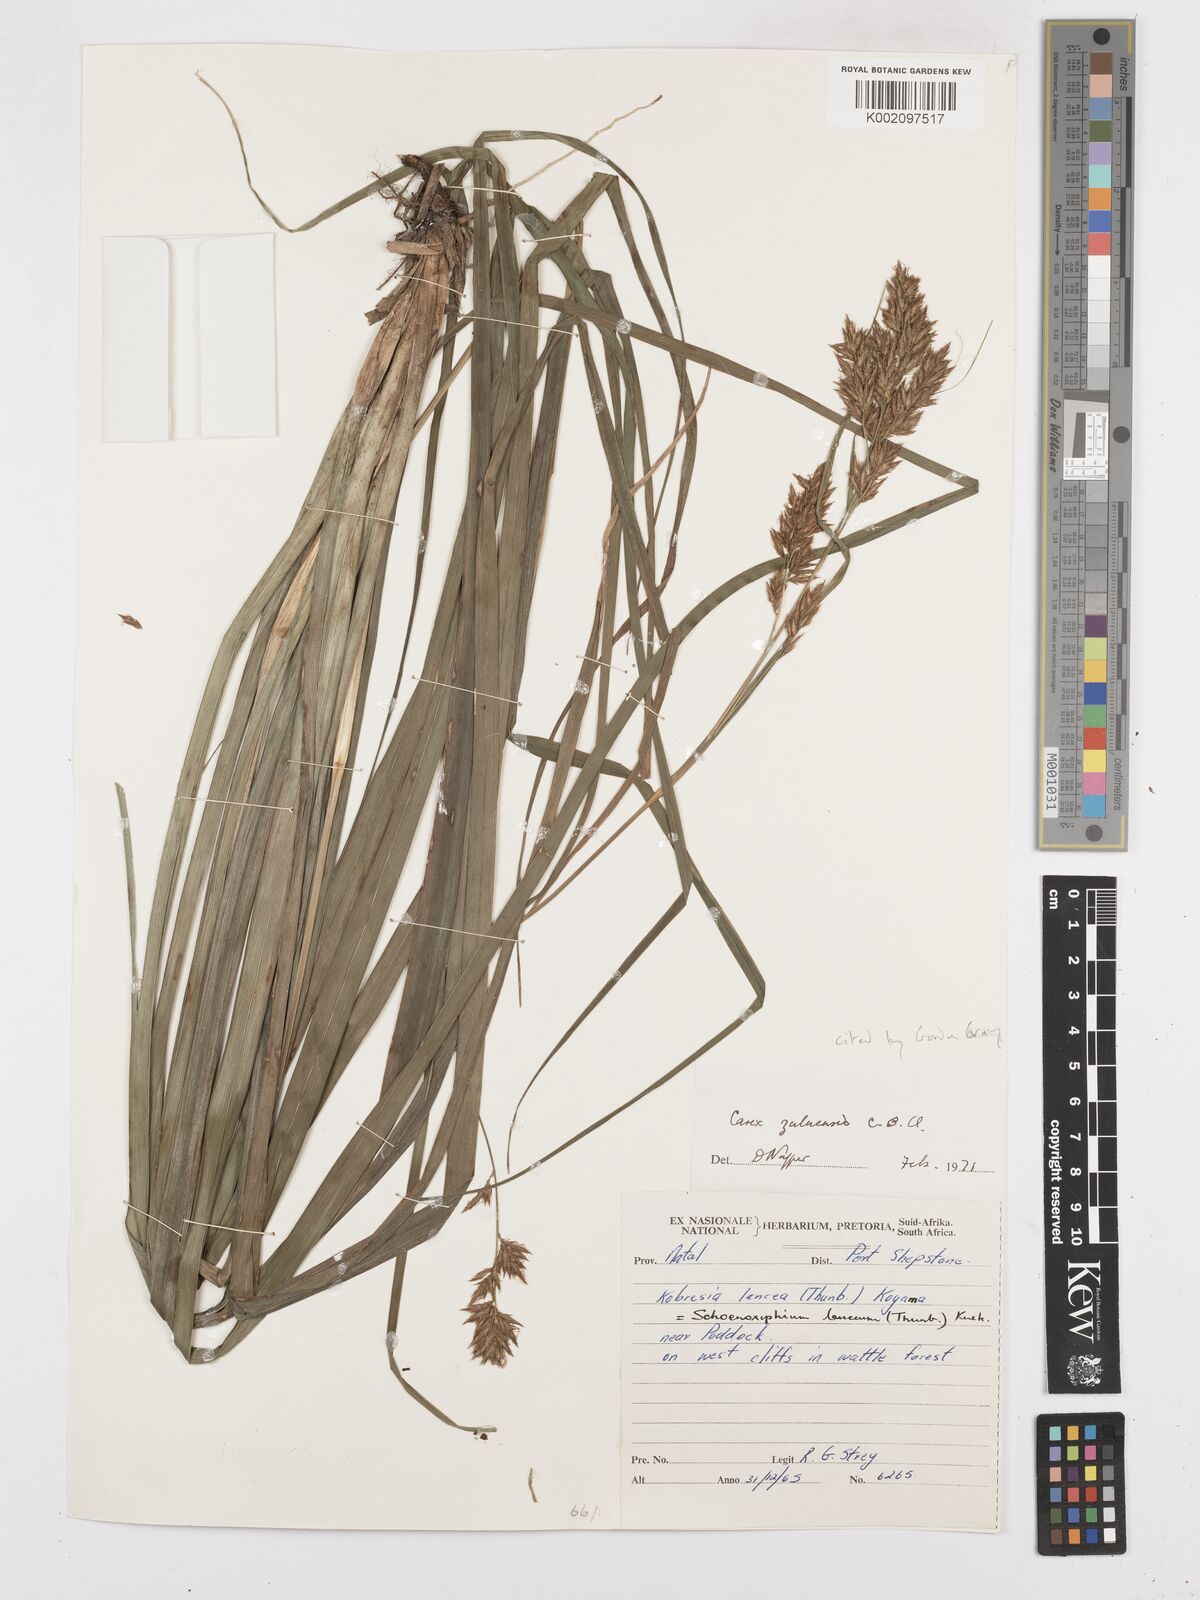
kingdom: Plantae
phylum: Tracheophyta
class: Liliopsida
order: Poales
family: Cyperaceae
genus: Carex
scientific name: Carex steudneri
